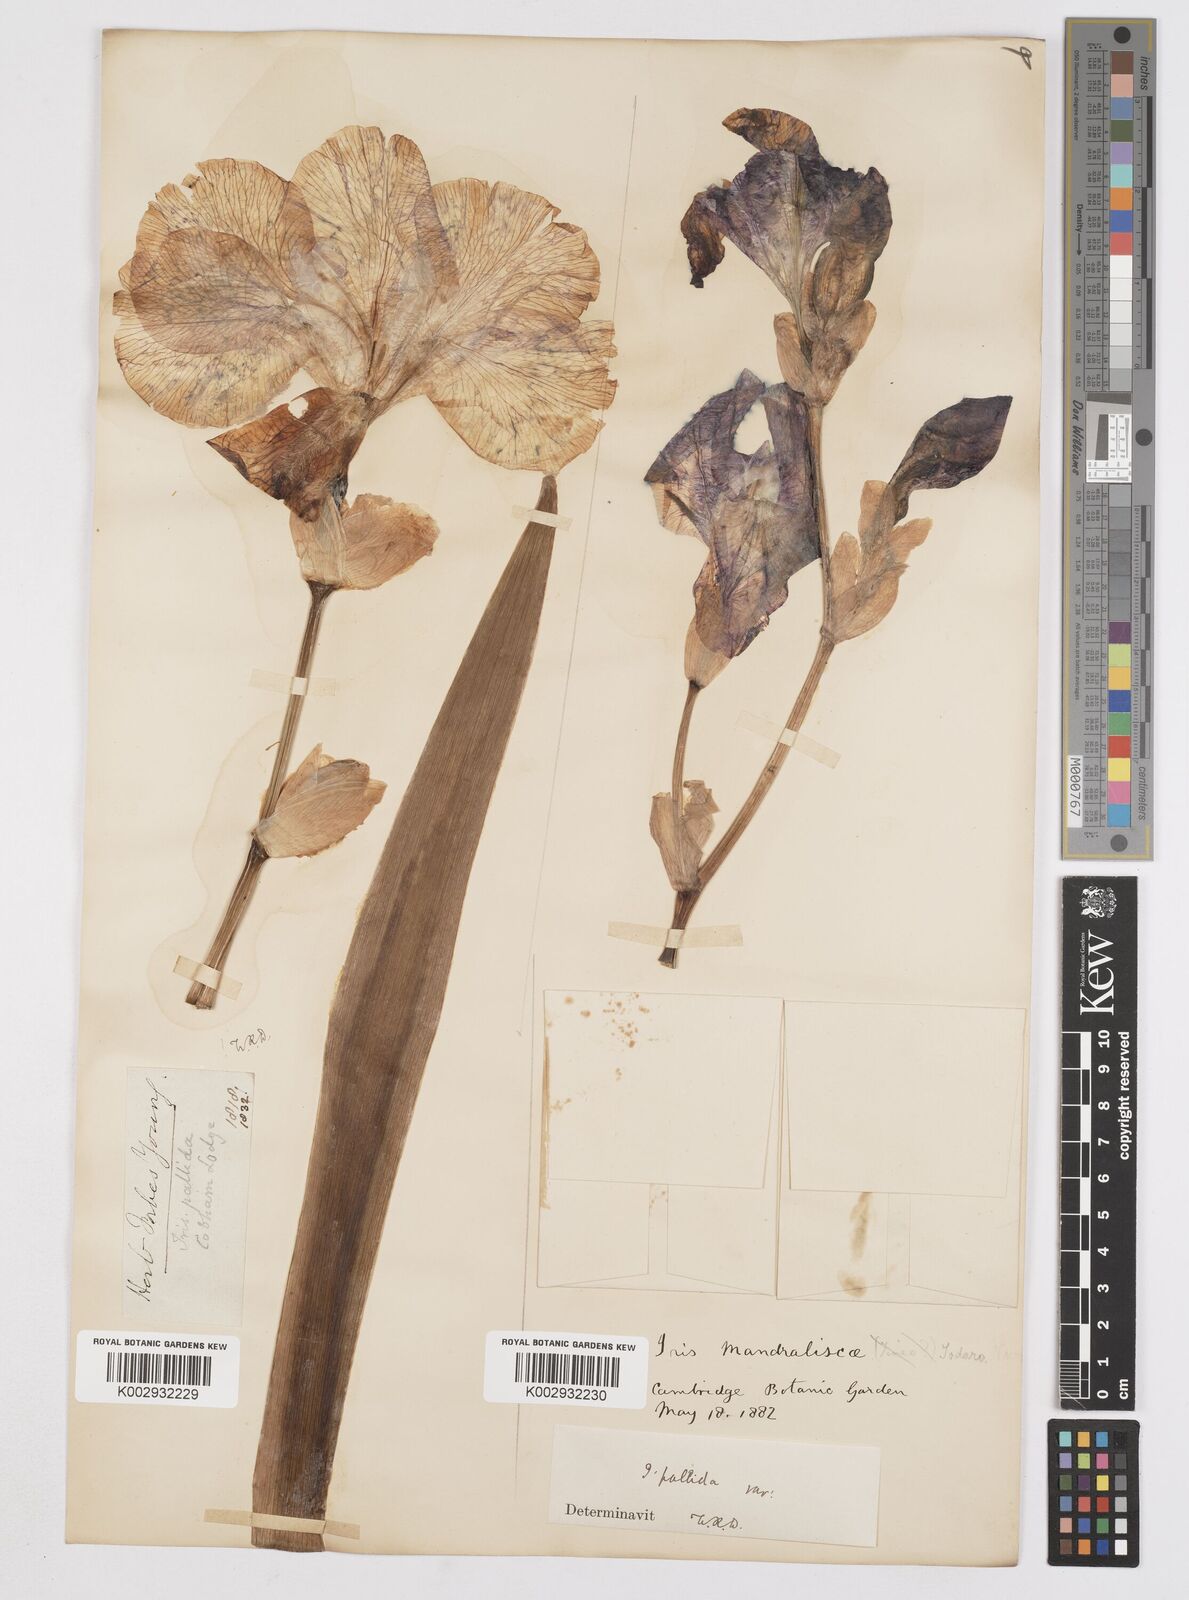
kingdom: Plantae
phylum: Tracheophyta
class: Liliopsida
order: Asparagales
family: Iridaceae
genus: Iris
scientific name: Iris
